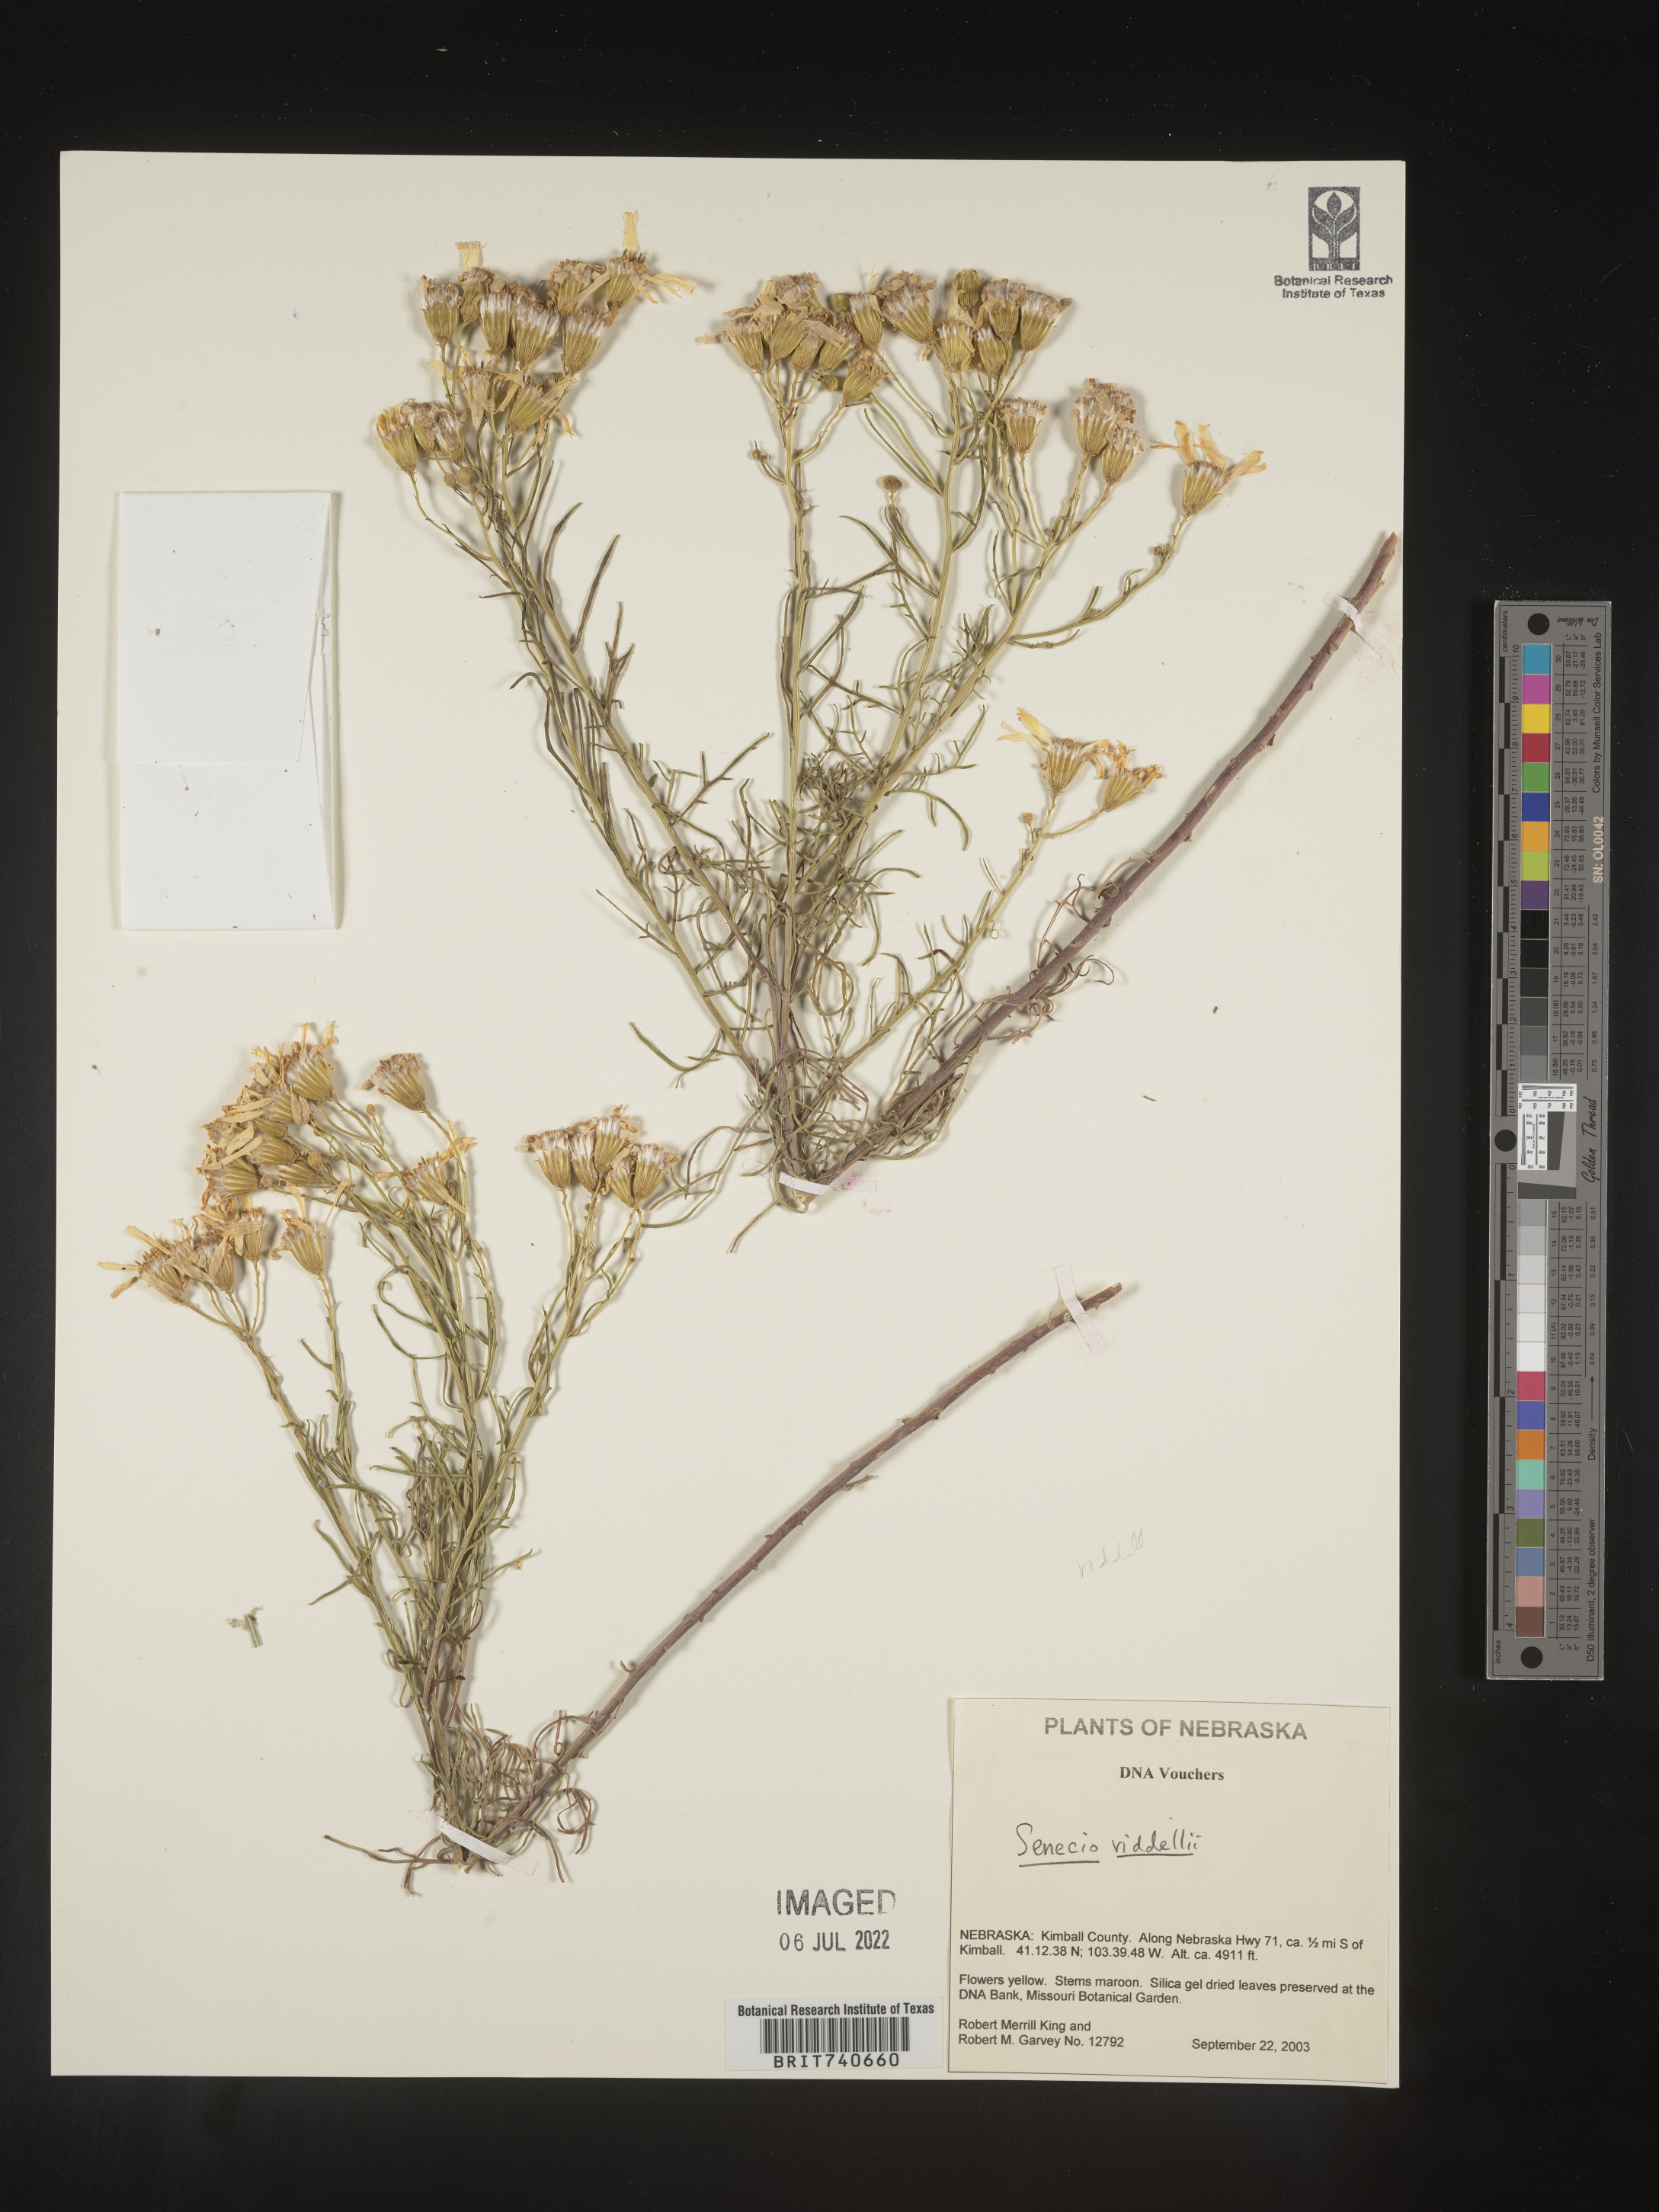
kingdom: Plantae
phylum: Tracheophyta
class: Magnoliopsida
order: Asterales
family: Asteraceae
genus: Senecio
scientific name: Senecio riddellii
